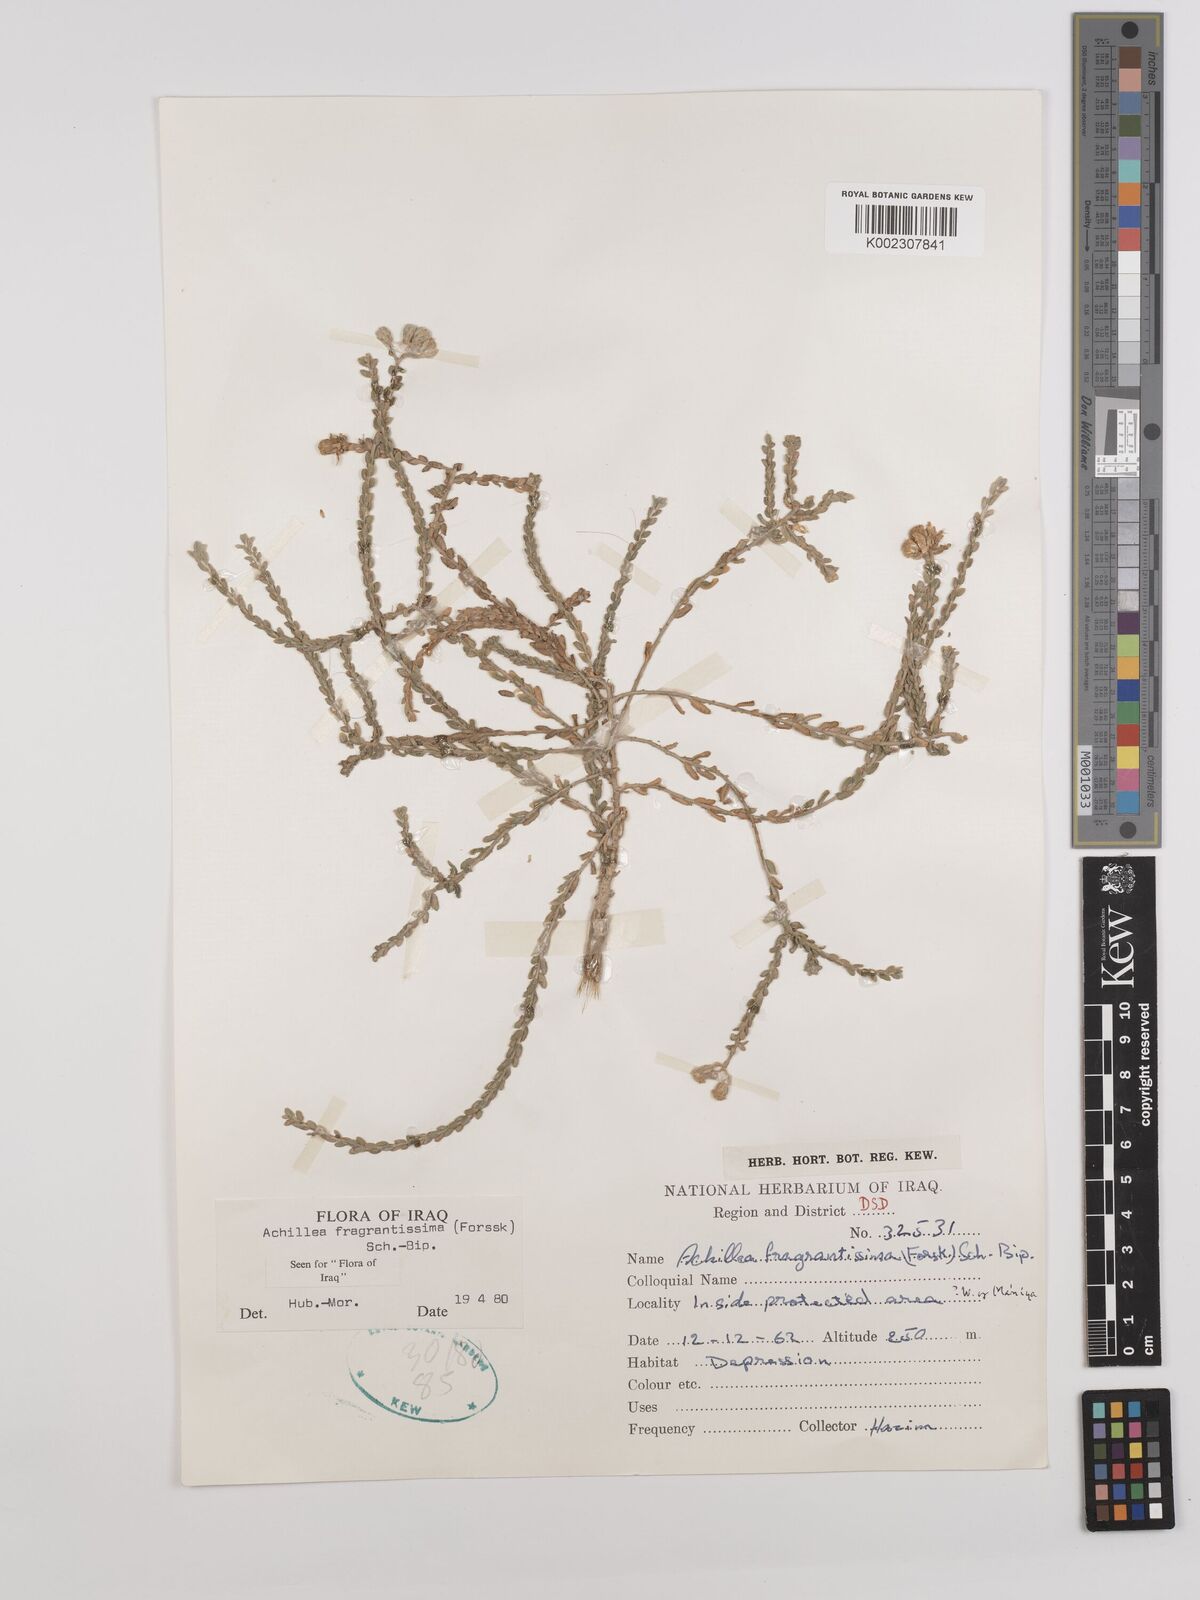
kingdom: Plantae
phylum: Tracheophyta
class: Magnoliopsida
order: Asterales
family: Asteraceae
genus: Achillea
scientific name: Achillea fragrantissima
